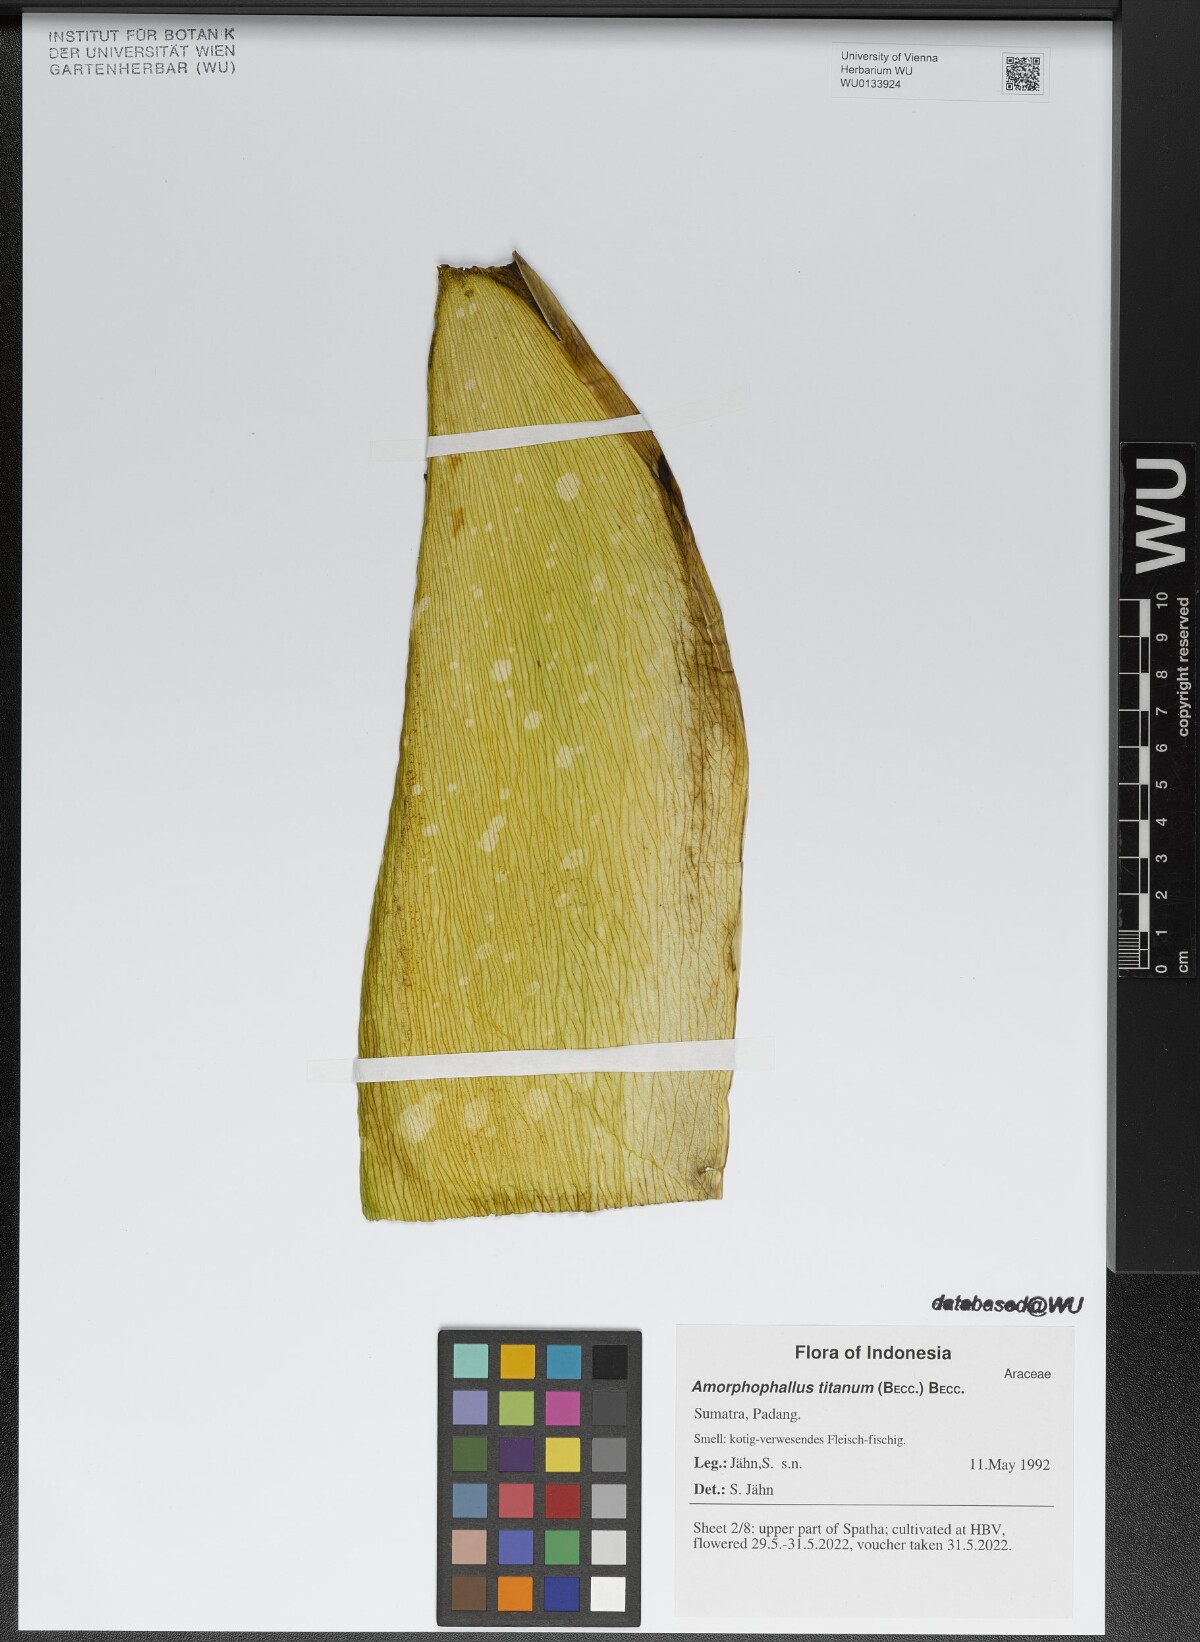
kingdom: Plantae
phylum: Tracheophyta
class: Liliopsida
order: Alismatales
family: Araceae
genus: Amorphophallus
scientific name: Amorphophallus titanum
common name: Titan arum
